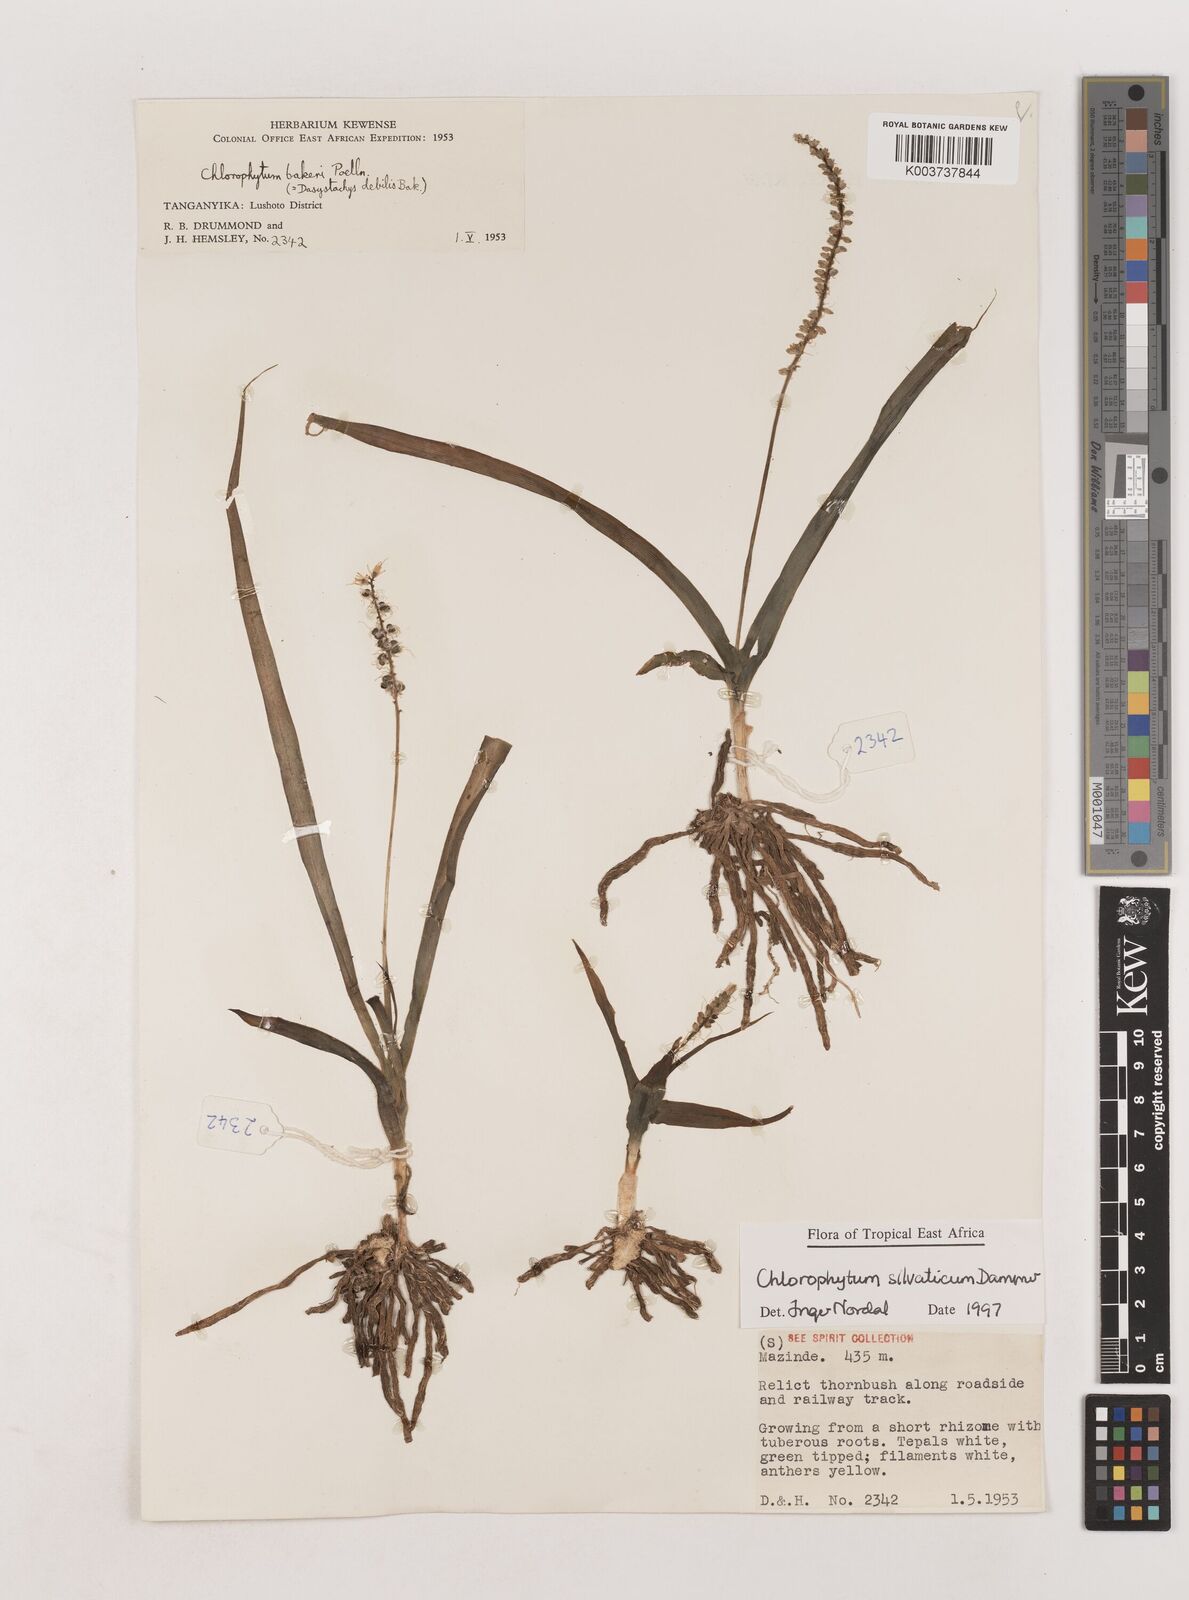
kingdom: Plantae
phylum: Tracheophyta
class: Liliopsida
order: Asparagales
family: Asparagaceae
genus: Chlorophytum
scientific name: Chlorophytum africanum
